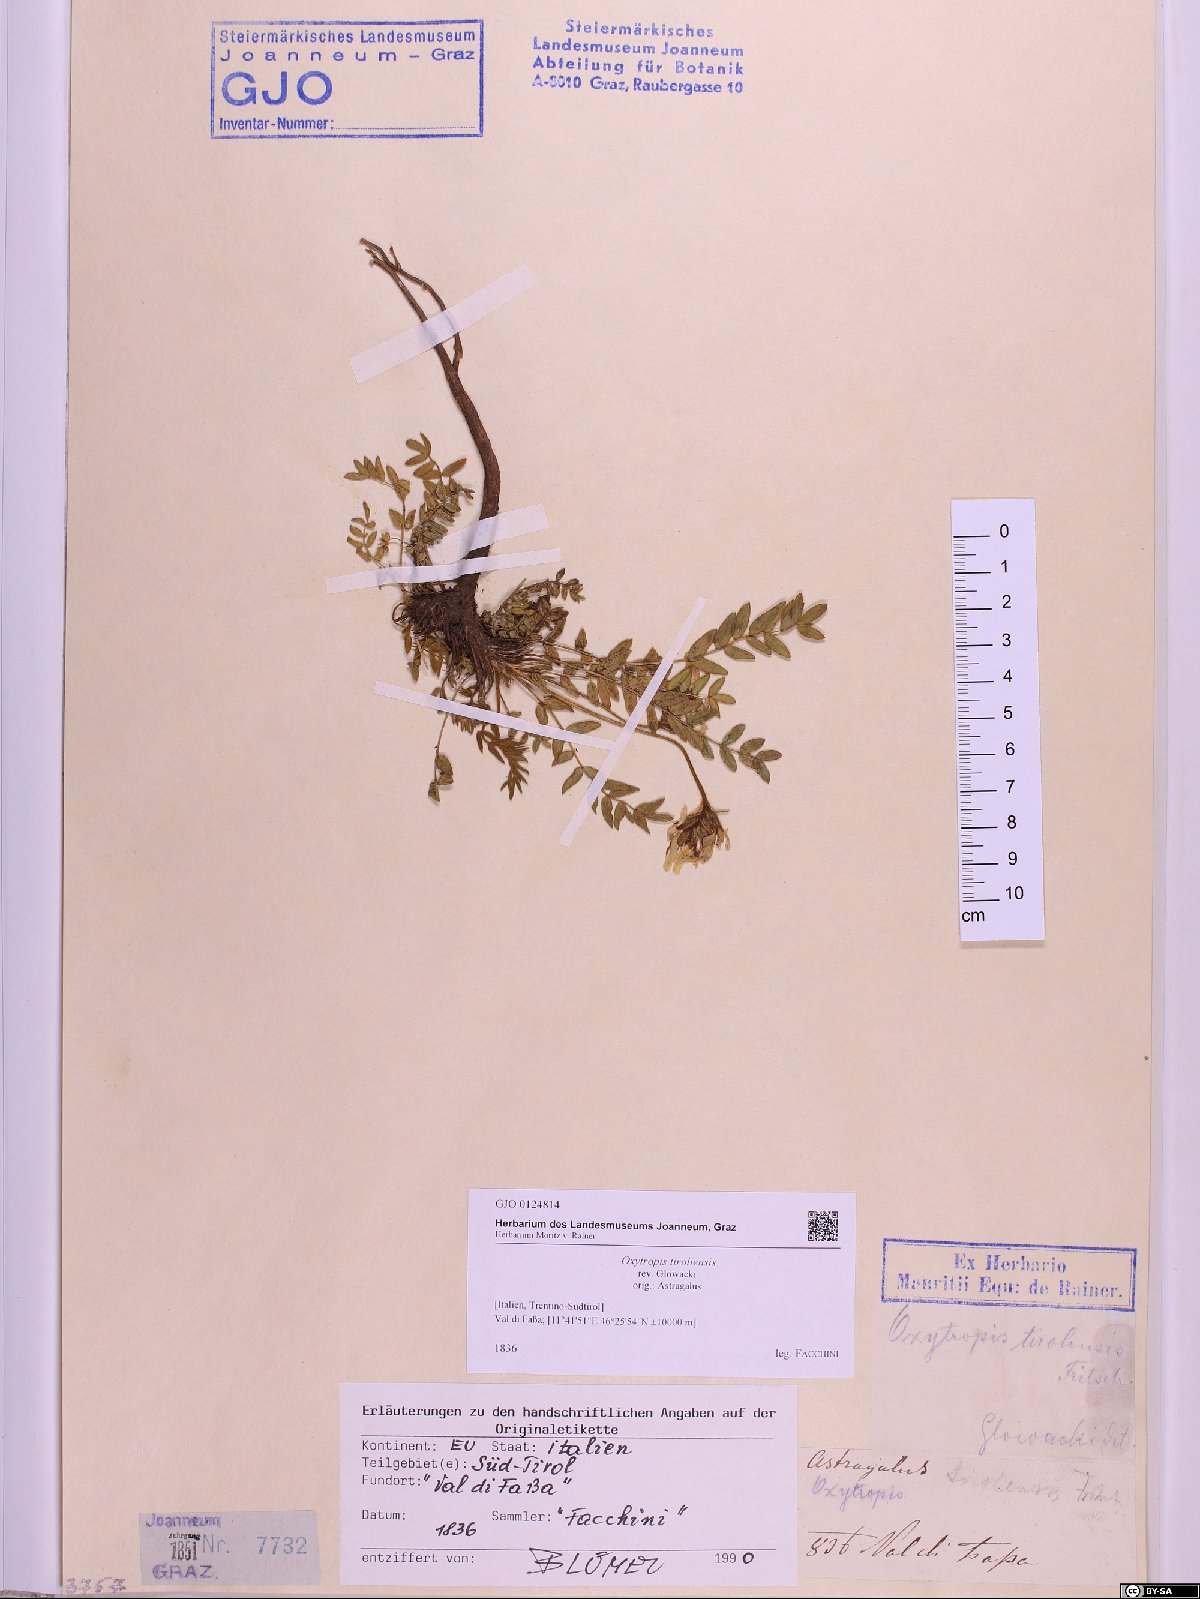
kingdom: Plantae
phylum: Tracheophyta
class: Magnoliopsida
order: Fabales
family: Fabaceae
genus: Oxytropis
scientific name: Oxytropis campestris
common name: Field locoweed
